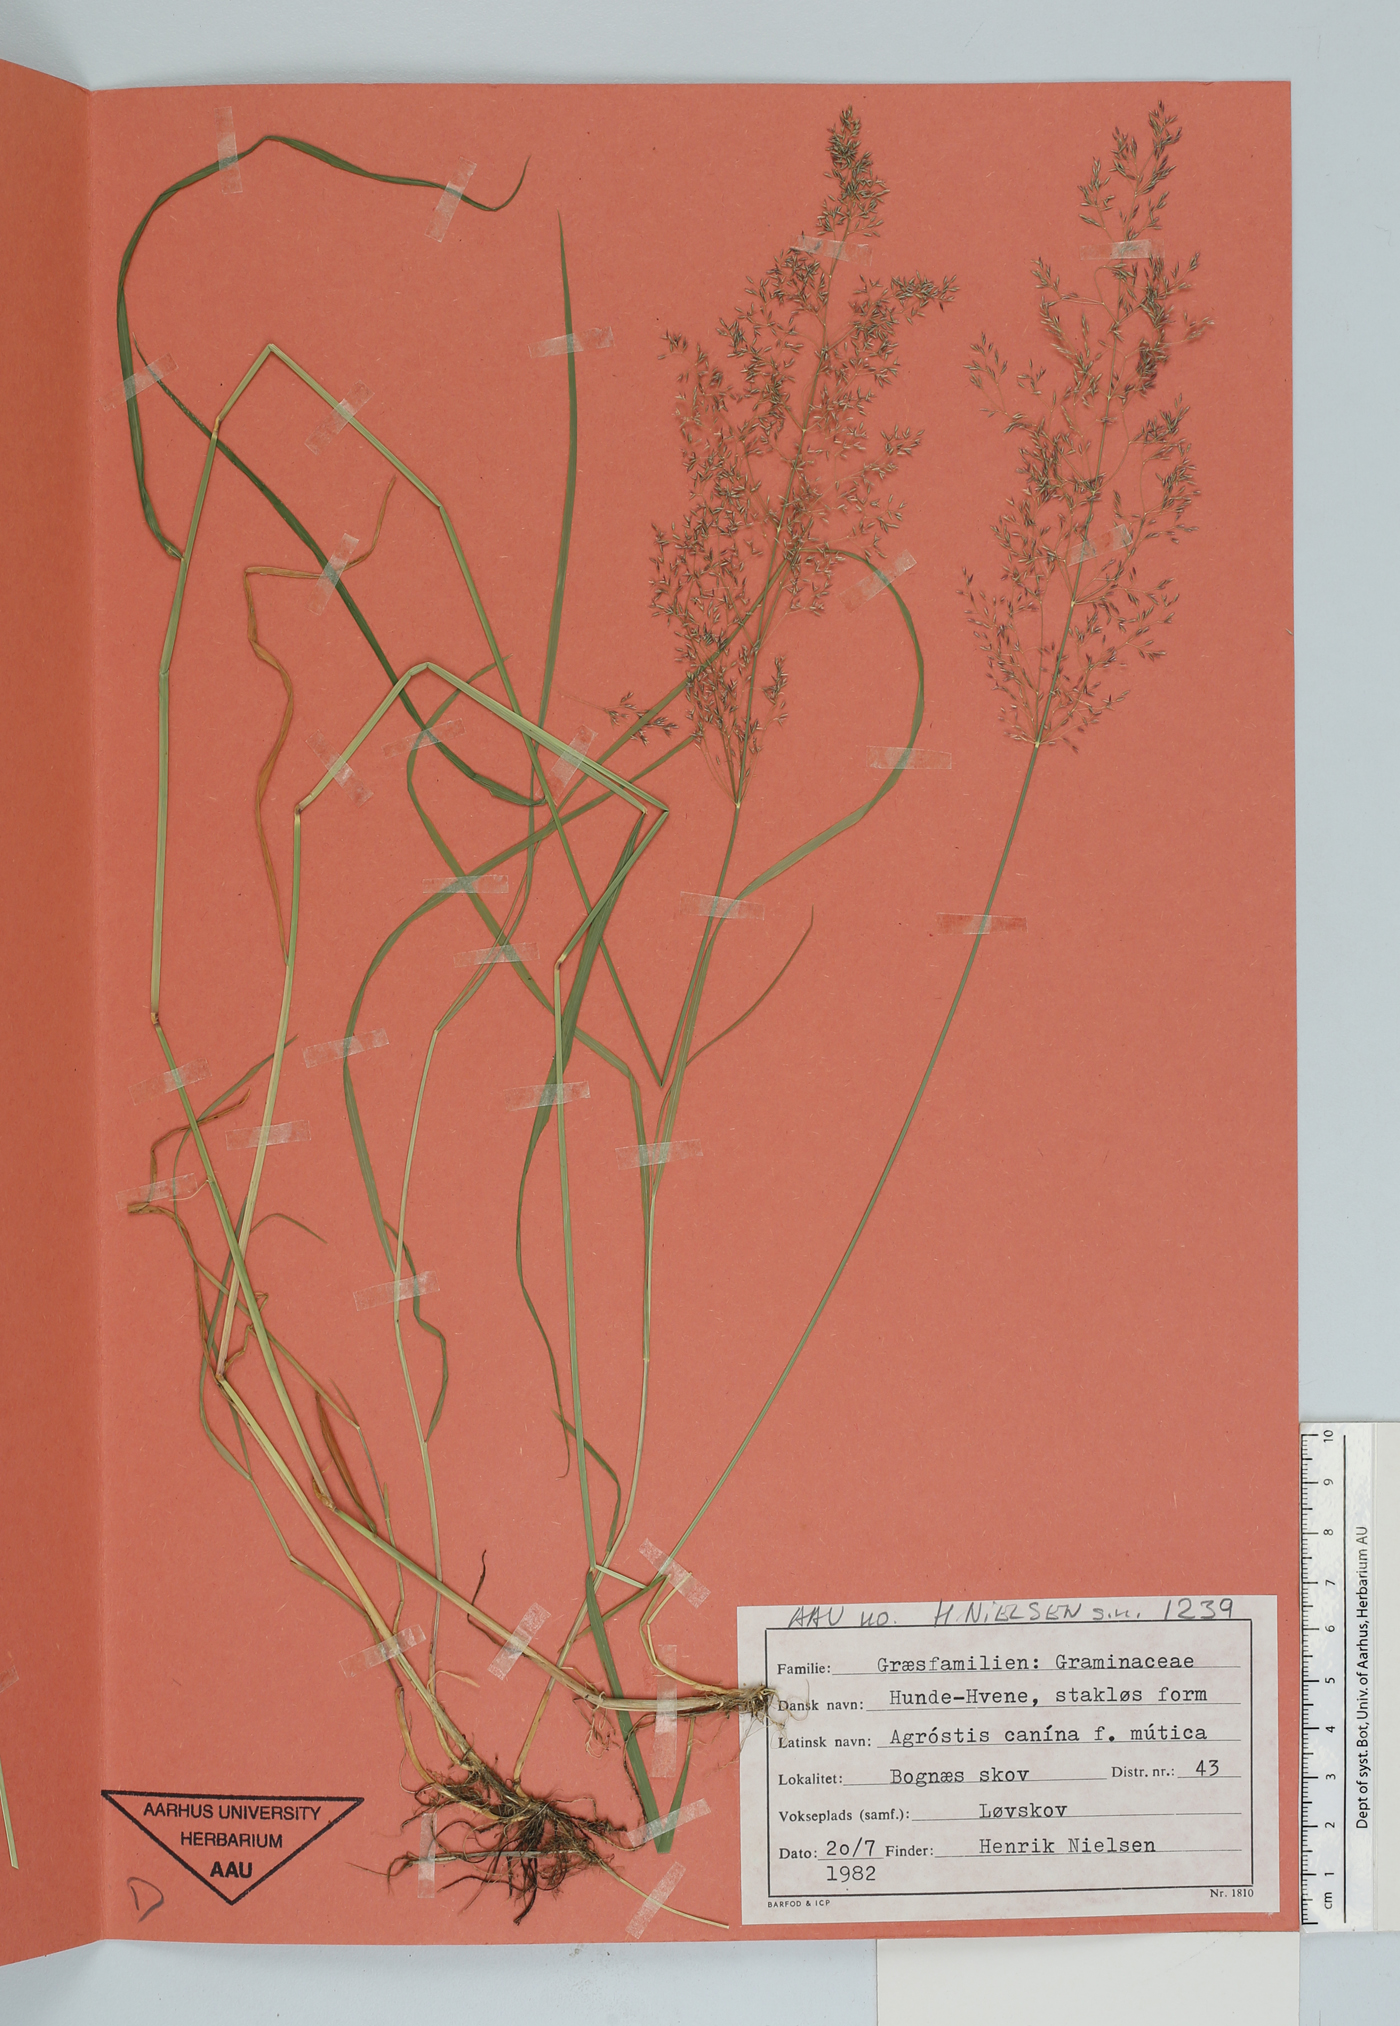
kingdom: Plantae
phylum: Tracheophyta
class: Liliopsida
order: Poales
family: Poaceae
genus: Agrostis
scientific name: Agrostis canina
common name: Velvet bent
